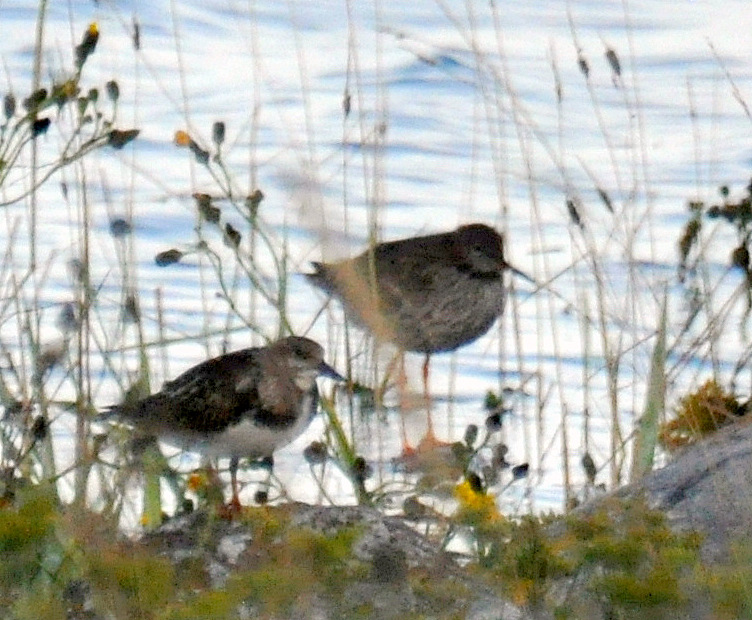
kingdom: Animalia
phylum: Chordata
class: Aves
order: Charadriiformes
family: Scolopacidae
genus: Tringa
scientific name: Tringa totanus
